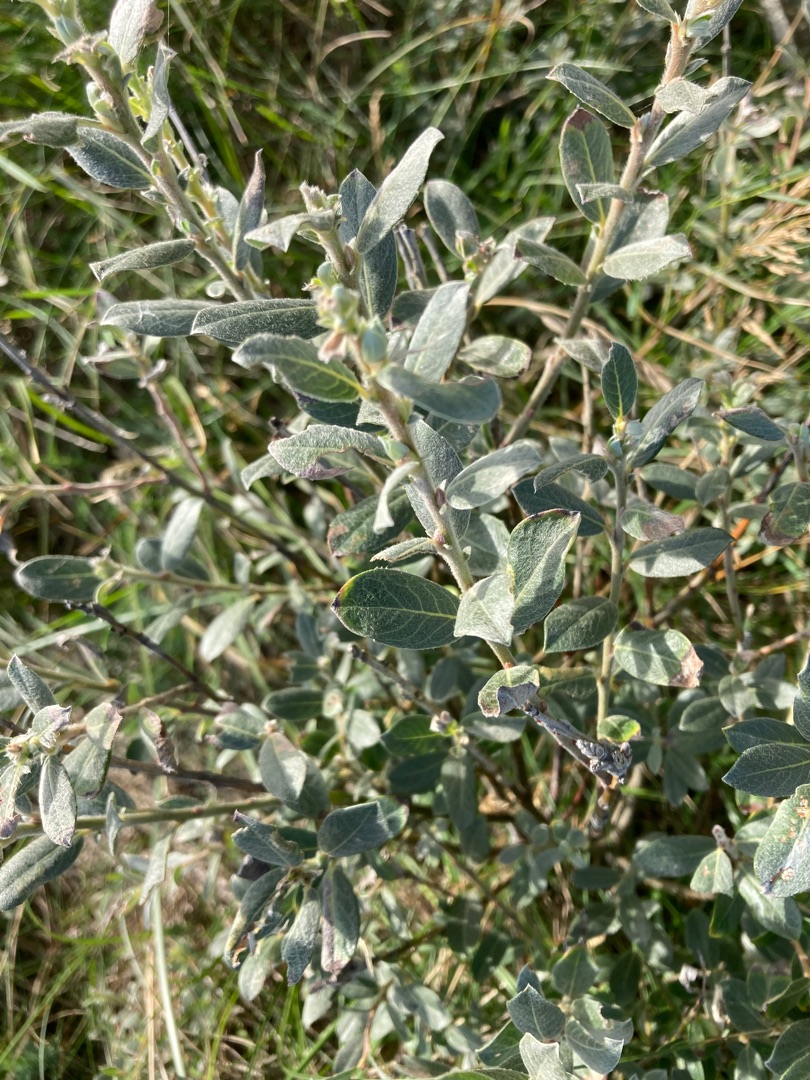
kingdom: Plantae
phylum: Tracheophyta
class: Magnoliopsida
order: Malpighiales
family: Salicaceae
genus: Salix
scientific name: Salix repens
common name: Gråris
